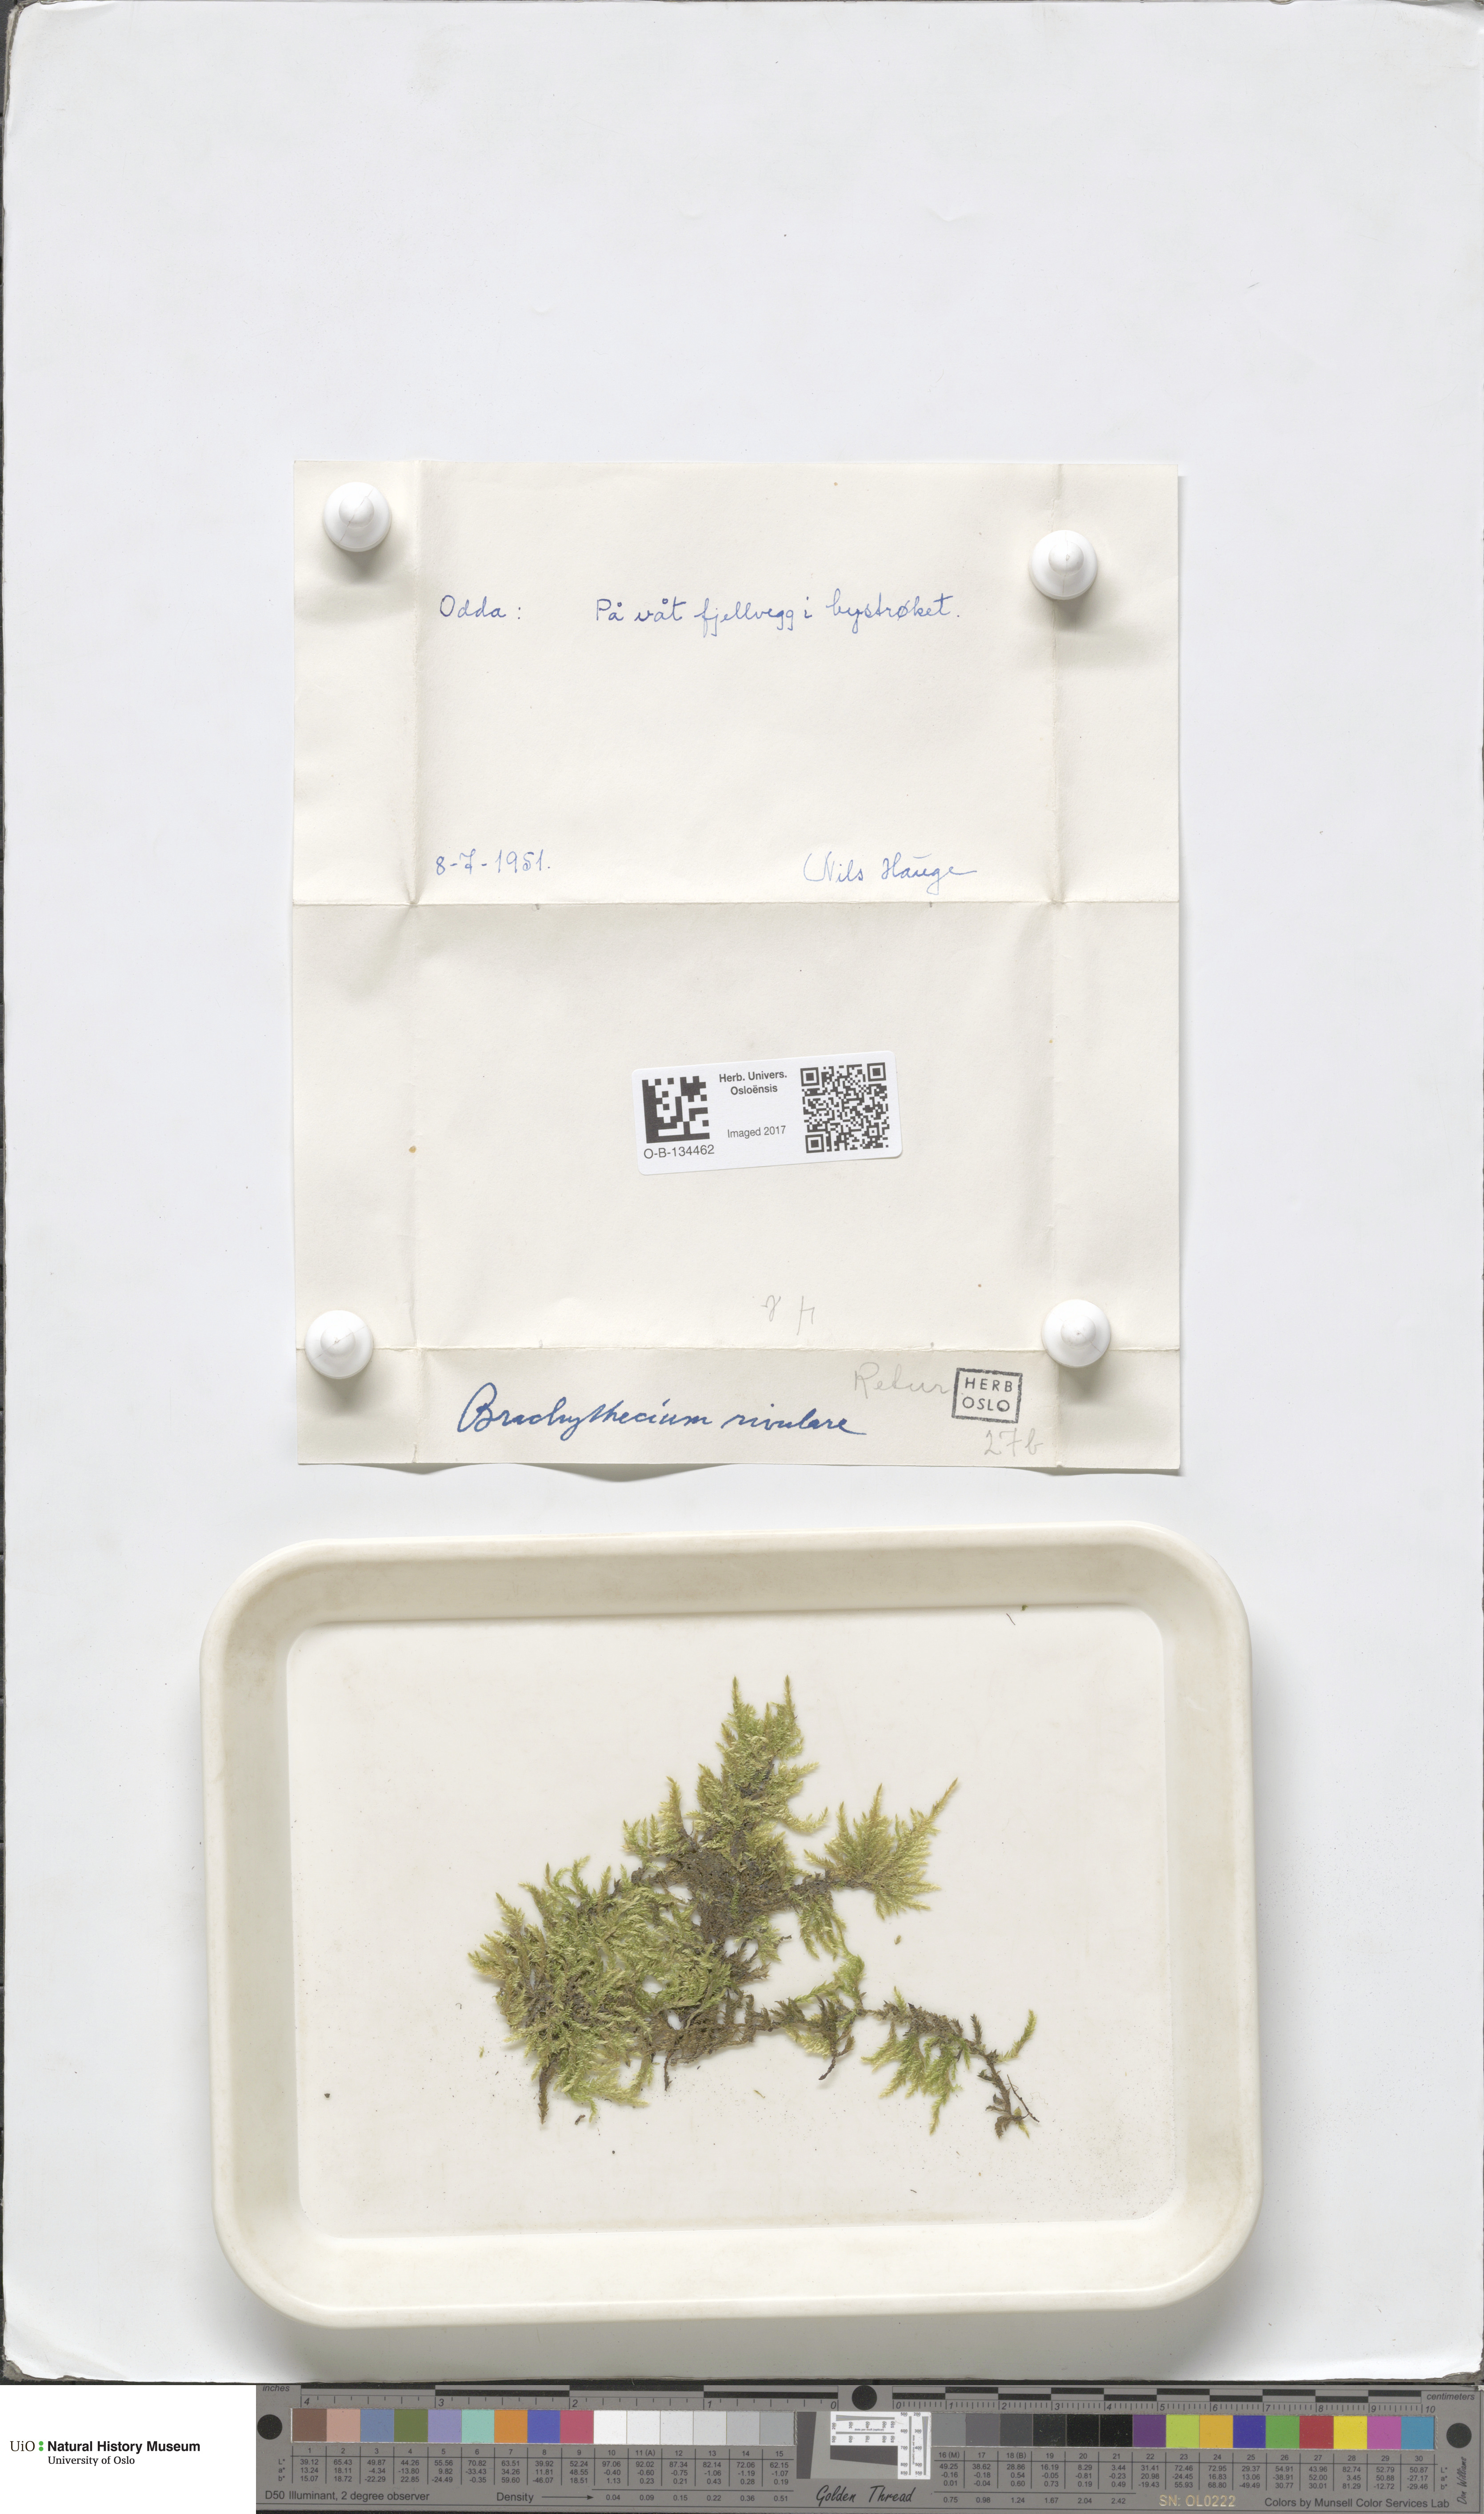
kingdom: Plantae
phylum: Bryophyta
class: Bryopsida
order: Hypnales
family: Brachytheciaceae
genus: Brachythecium
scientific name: Brachythecium rivulare
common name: River ragged moss
